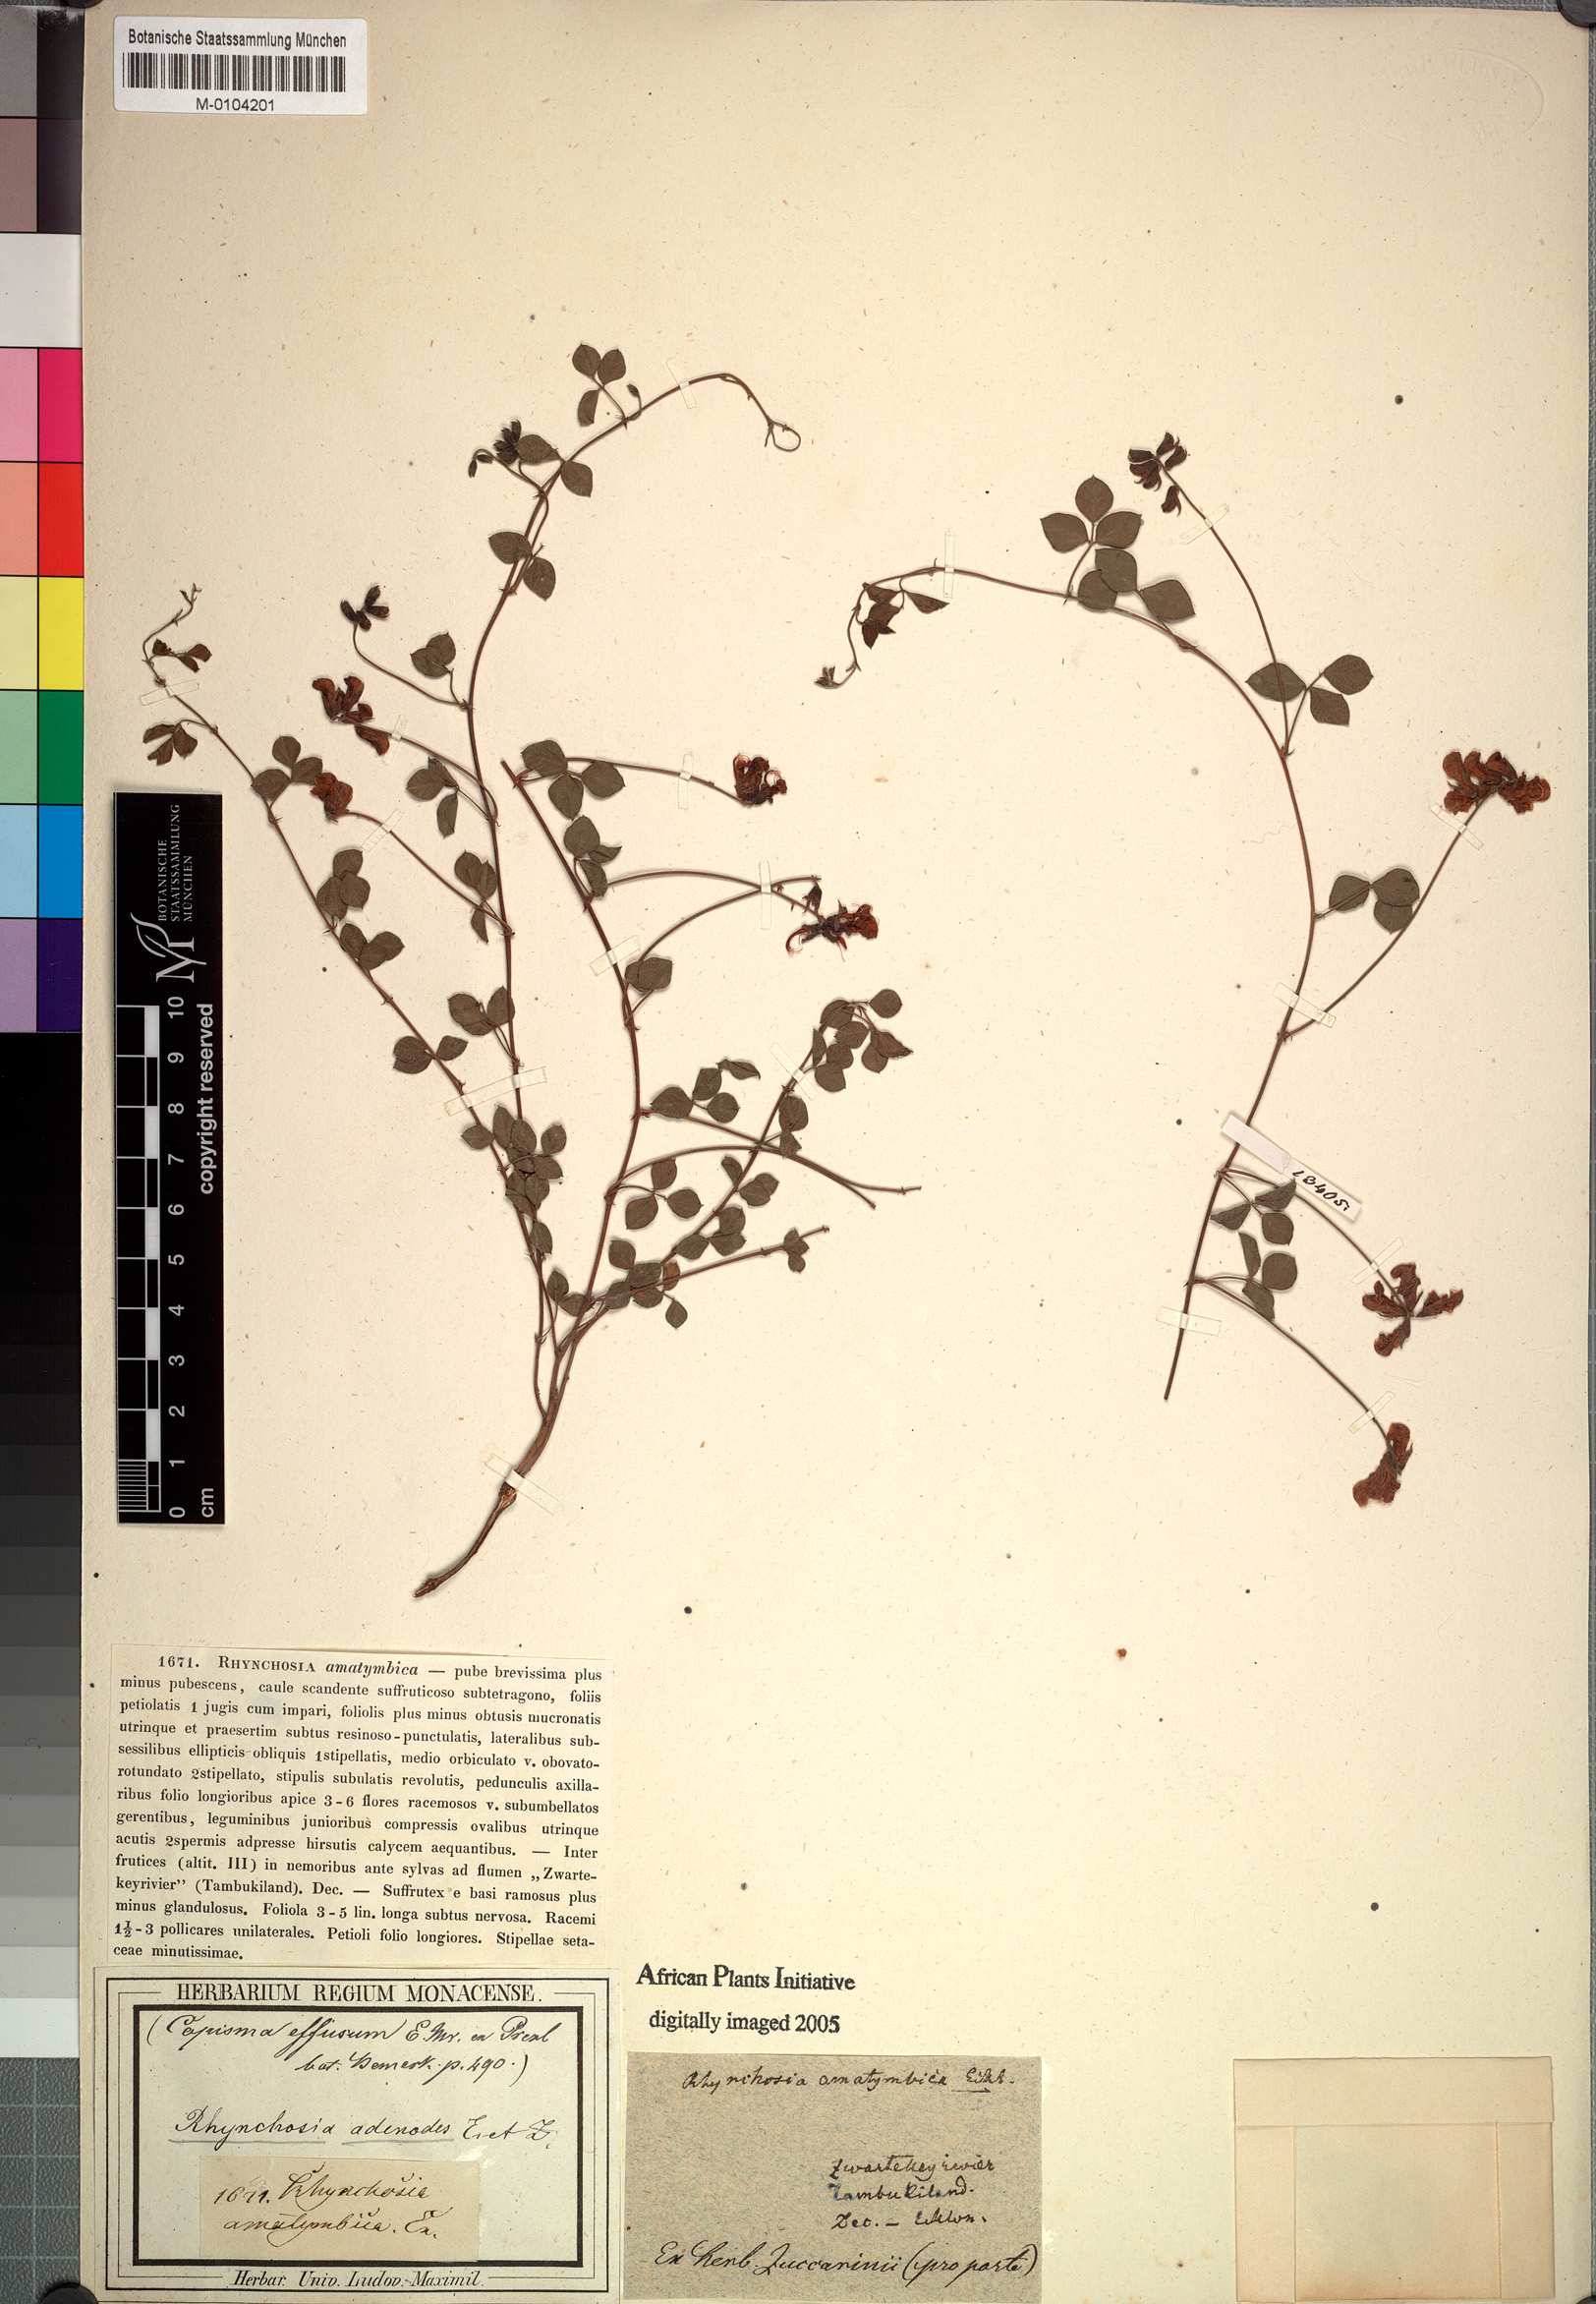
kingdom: Plantae
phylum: Tracheophyta
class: Magnoliopsida
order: Fabales
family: Fabaceae
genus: Rhynchosia
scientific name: Rhynchosia adenodes
